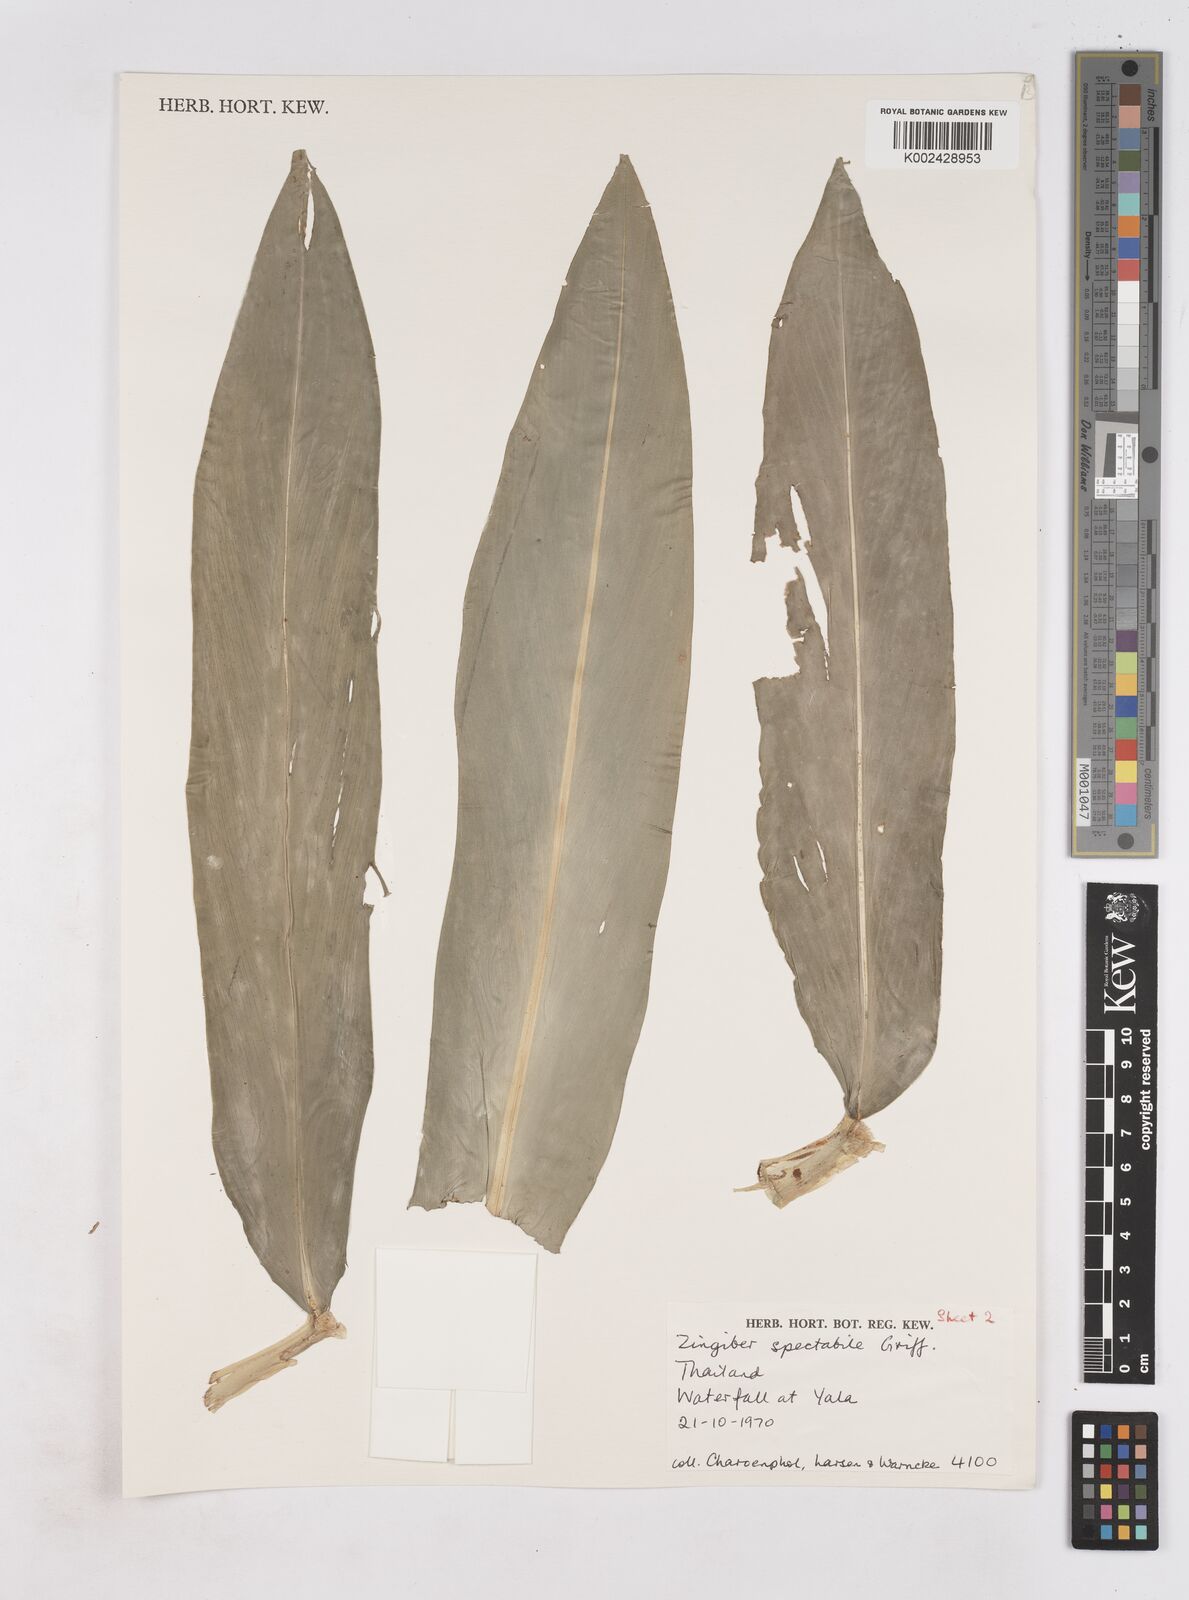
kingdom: Plantae
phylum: Tracheophyta
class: Liliopsida
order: Zingiberales
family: Zingiberaceae
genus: Zingiber
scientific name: Zingiber spectabile
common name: Beehive ginger
